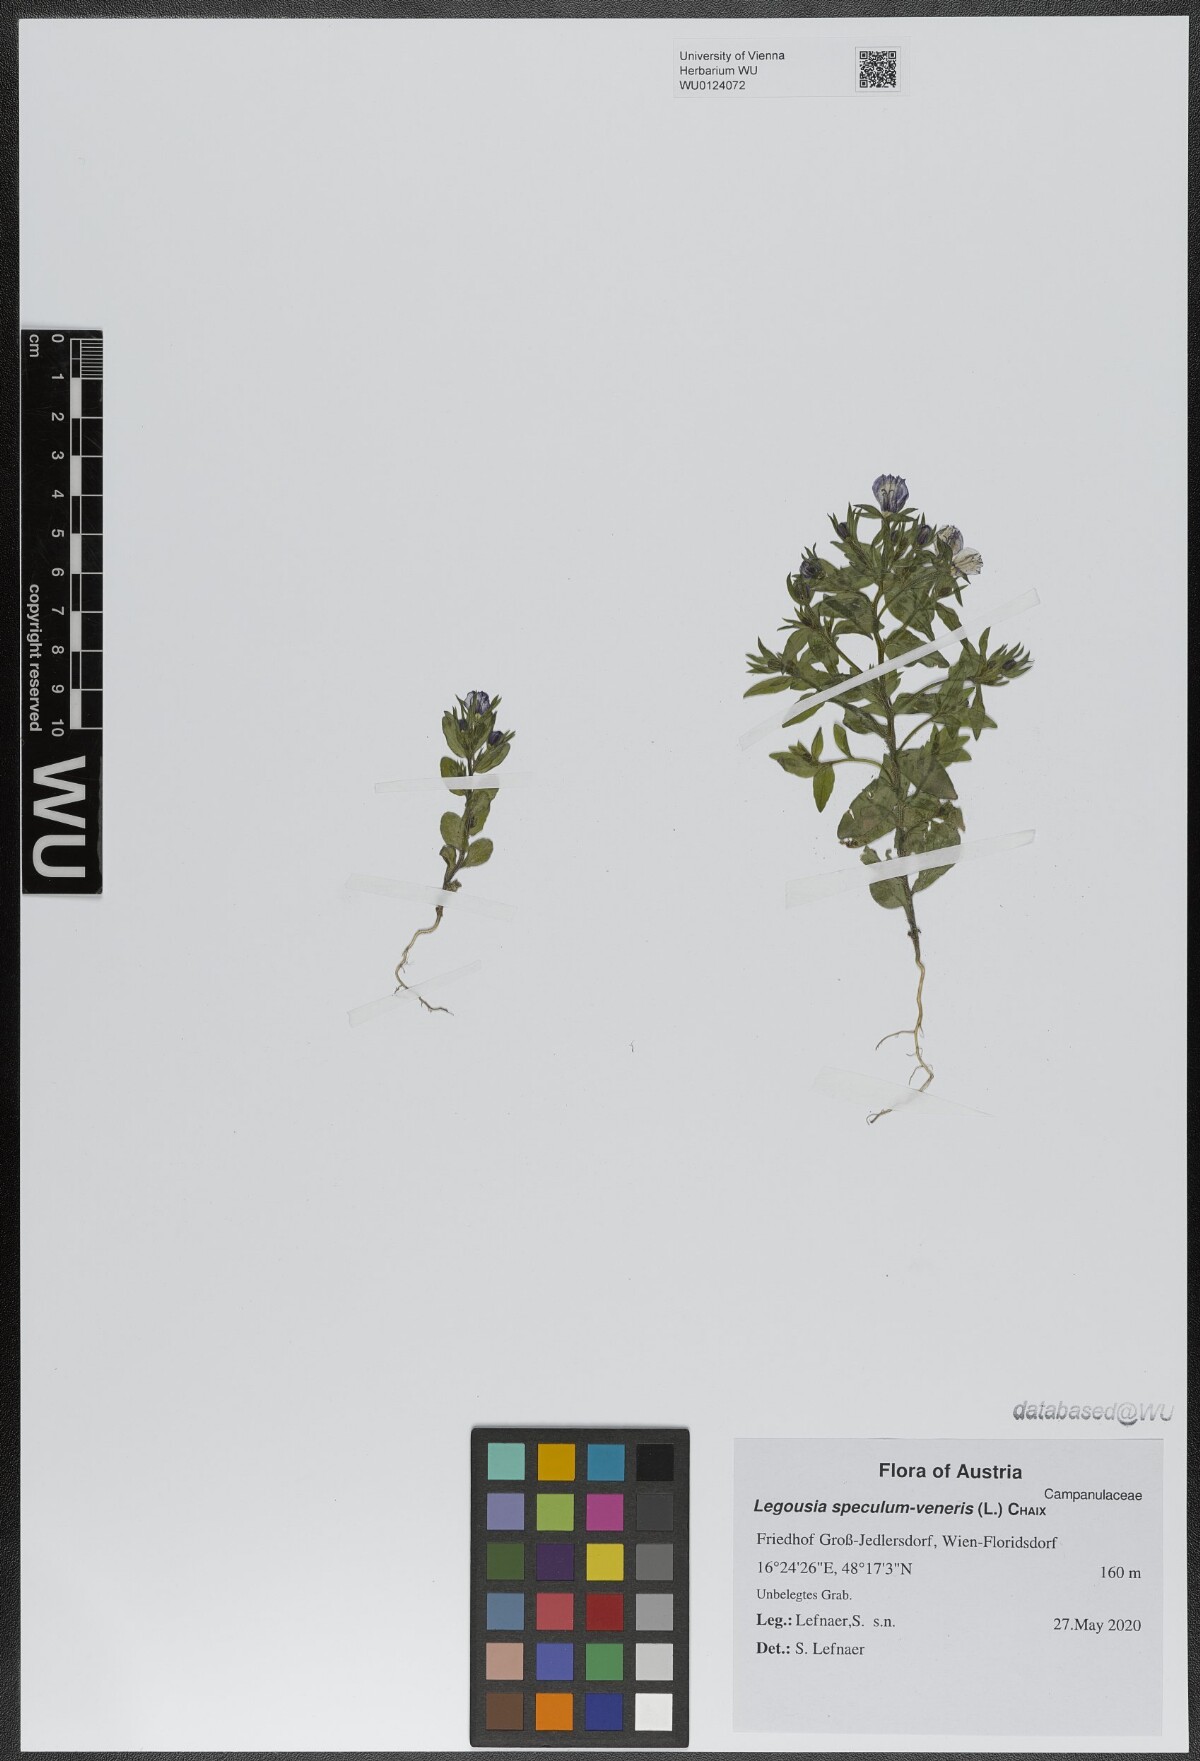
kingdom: Plantae
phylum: Tracheophyta
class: Magnoliopsida
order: Asterales
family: Campanulaceae
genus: Legousia
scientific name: Legousia speculum-veneris
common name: Large venus's-looking-glass
